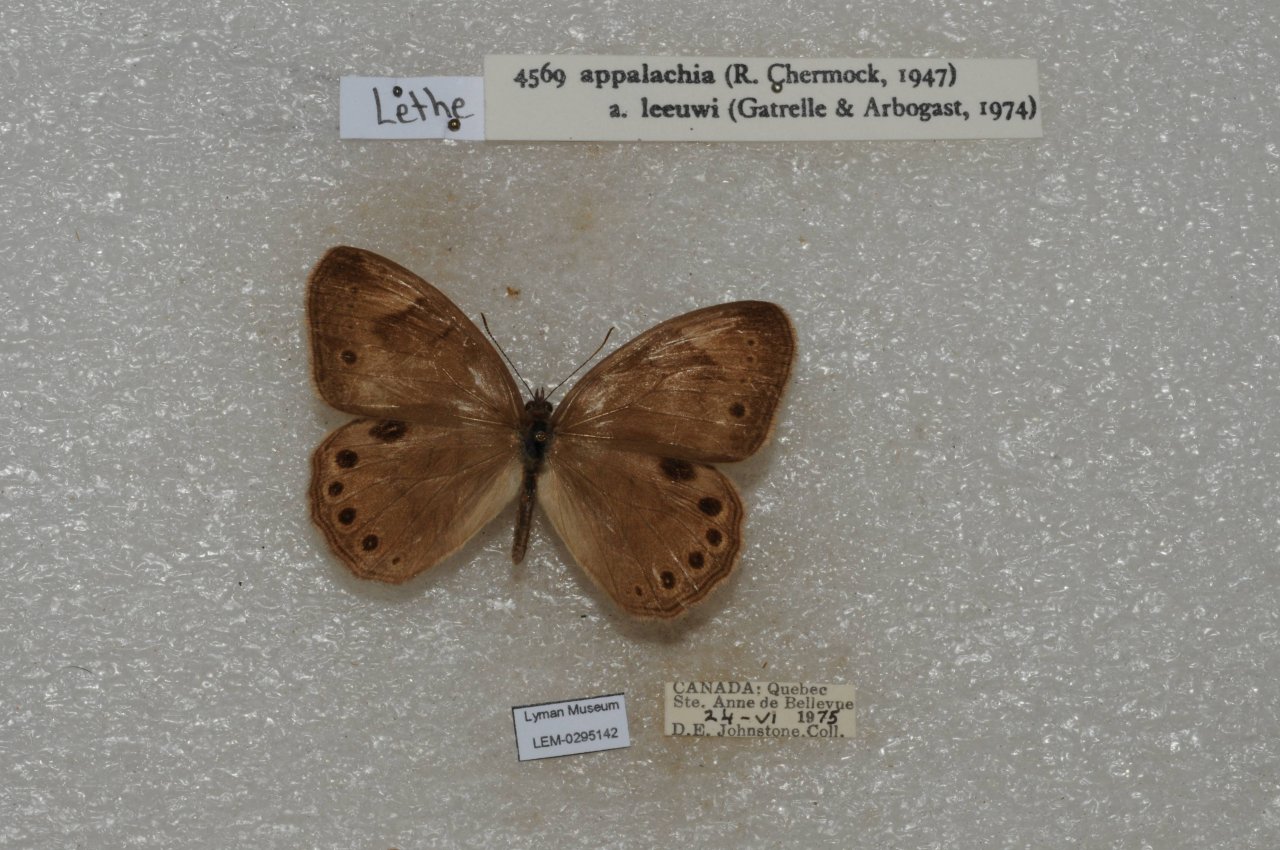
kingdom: Animalia
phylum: Arthropoda
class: Insecta
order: Lepidoptera
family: Nymphalidae
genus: Lethe
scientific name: Lethe eurydice
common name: Appalachian Eyed Brown
